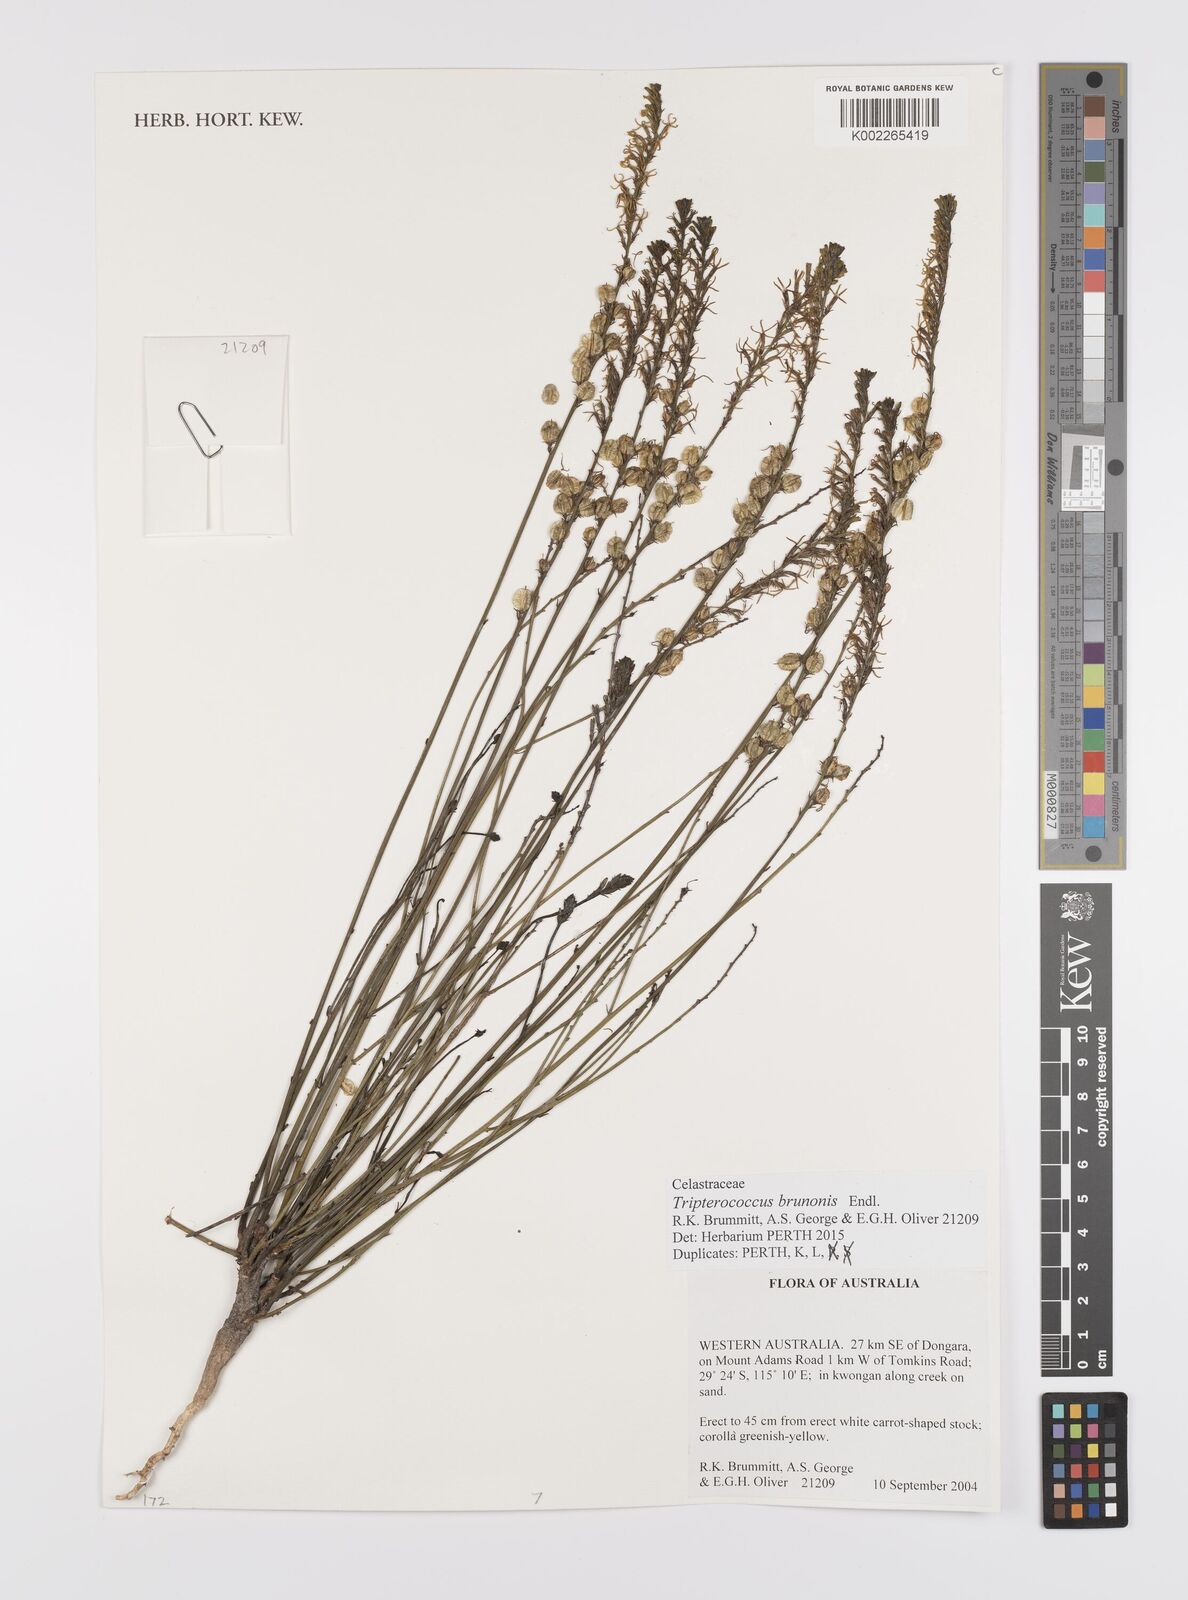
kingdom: Plantae
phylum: Tracheophyta
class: Magnoliopsida
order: Celastrales
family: Celastraceae
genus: Tripterococcus
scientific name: Tripterococcus brunonis
